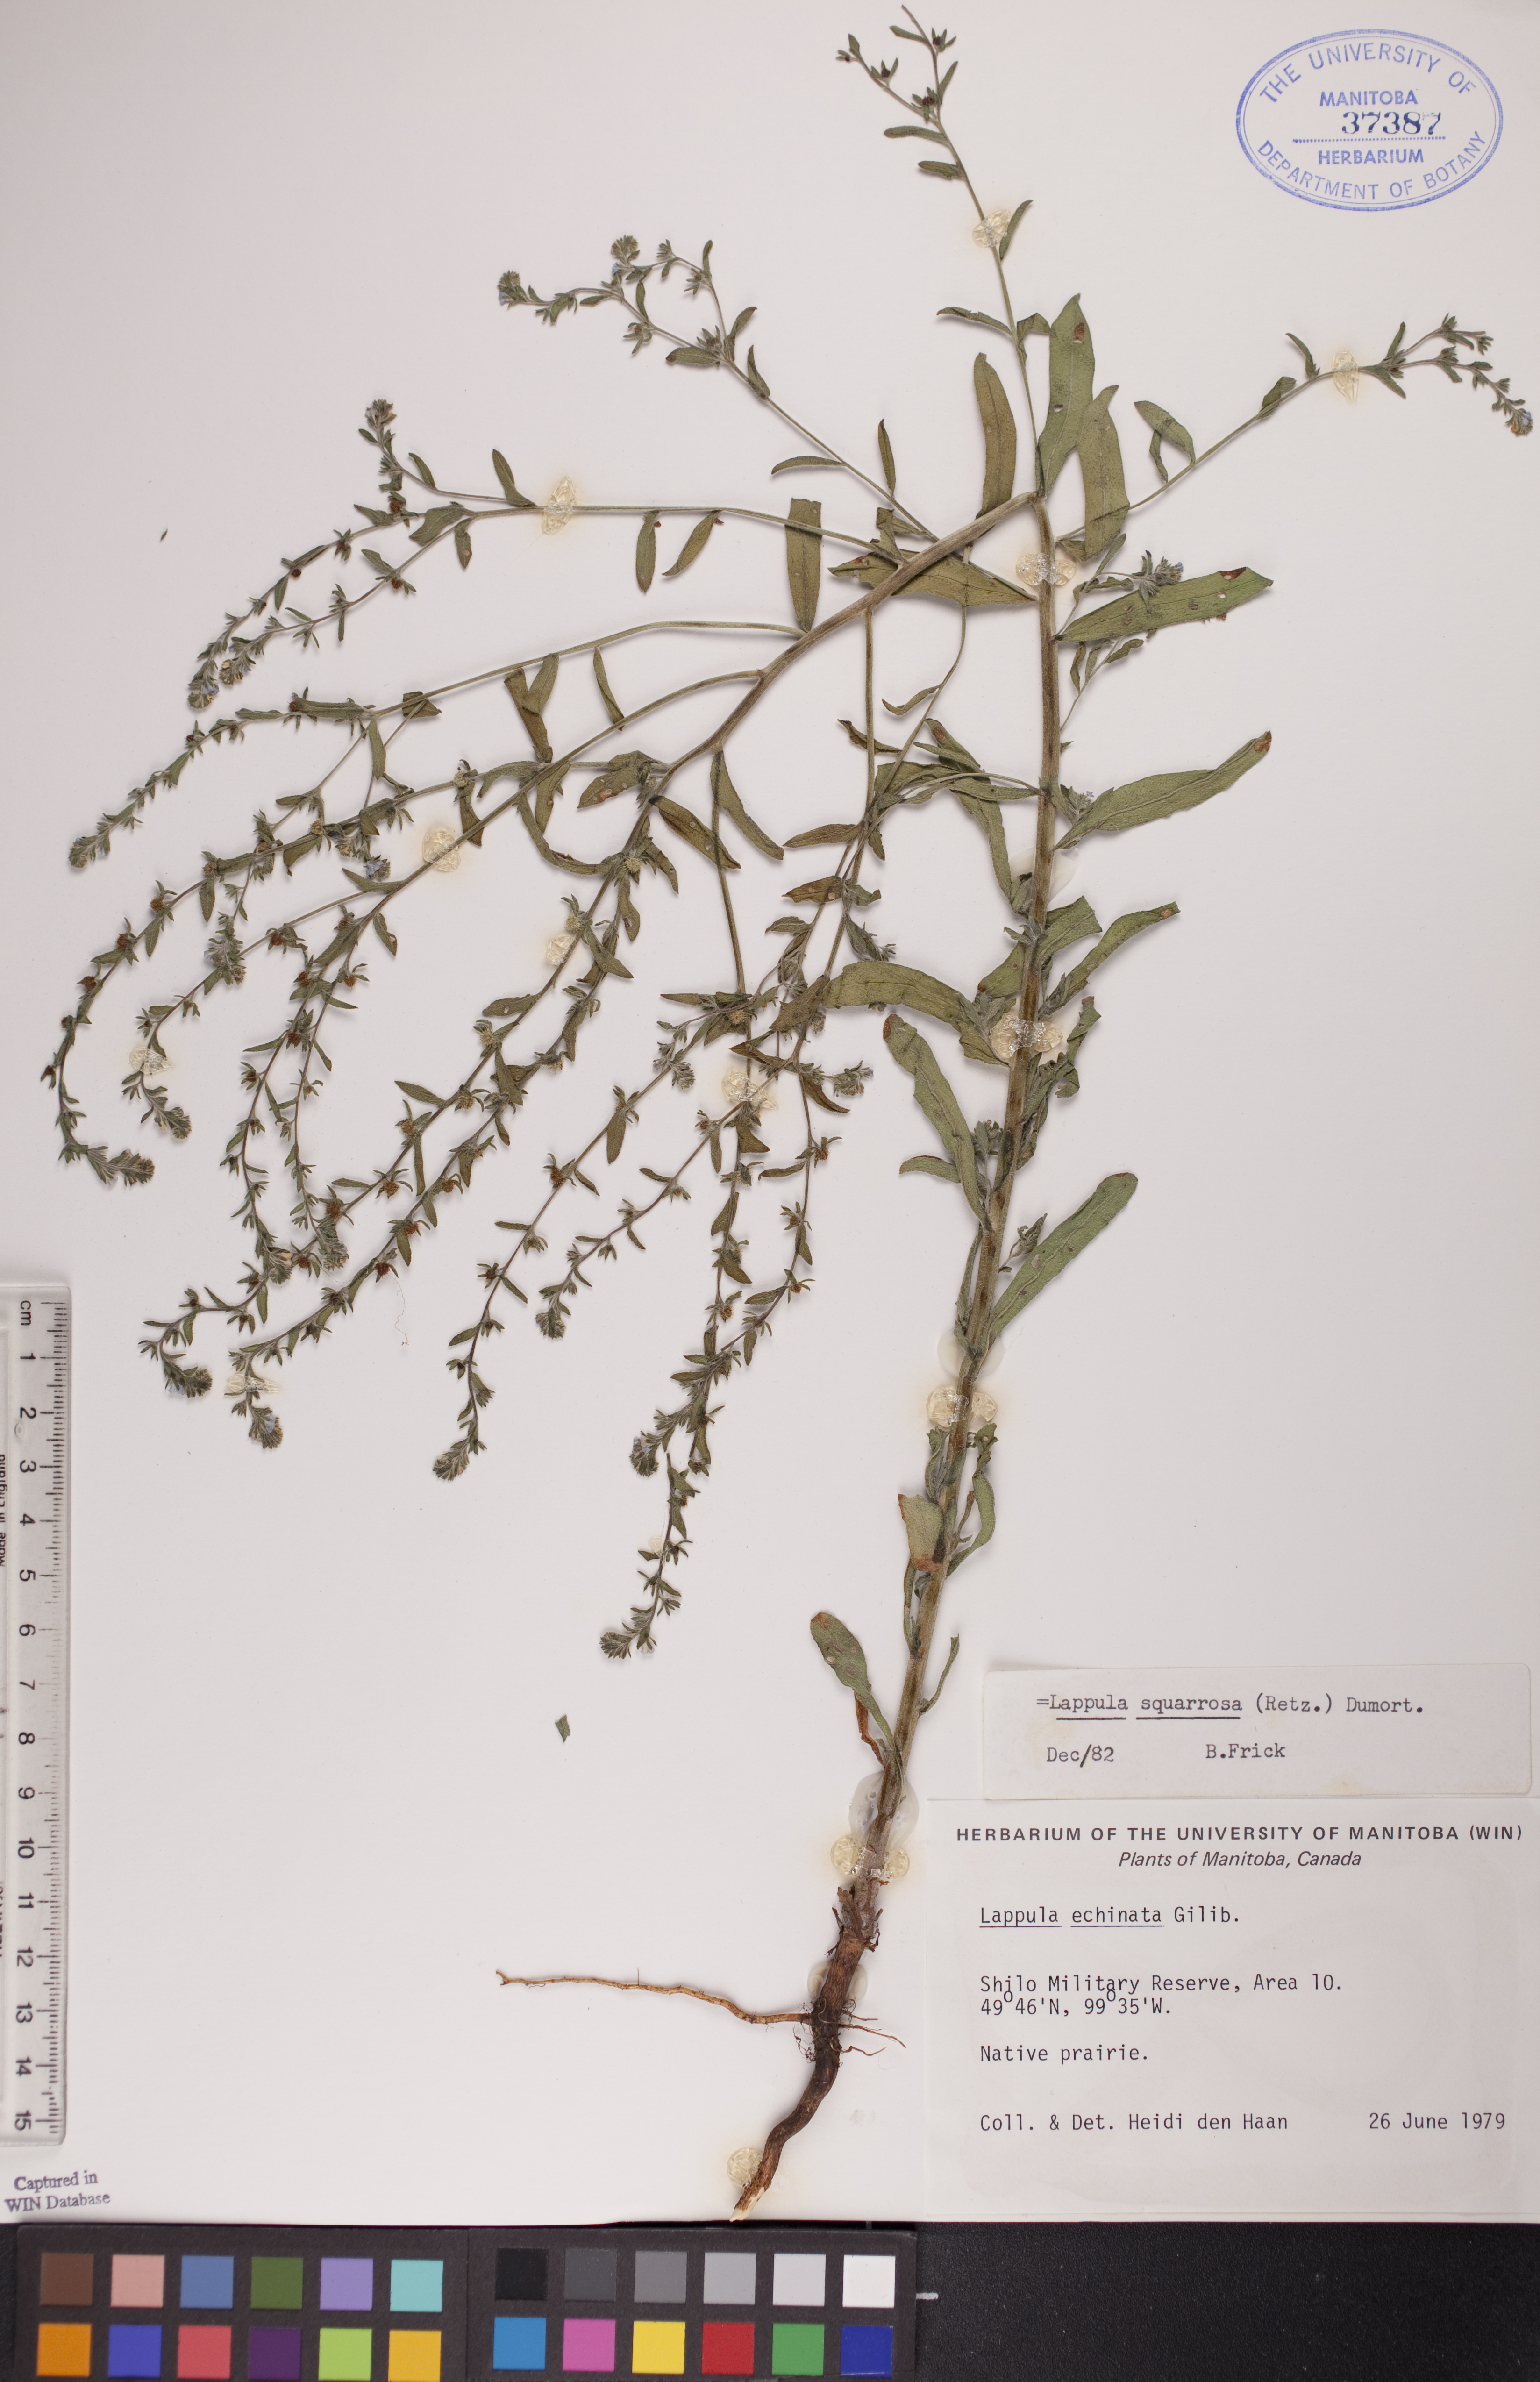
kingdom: Plantae
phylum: Tracheophyta
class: Magnoliopsida
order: Boraginales
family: Boraginaceae
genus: Lappula
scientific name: Lappula squarrosa
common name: European stickseed
